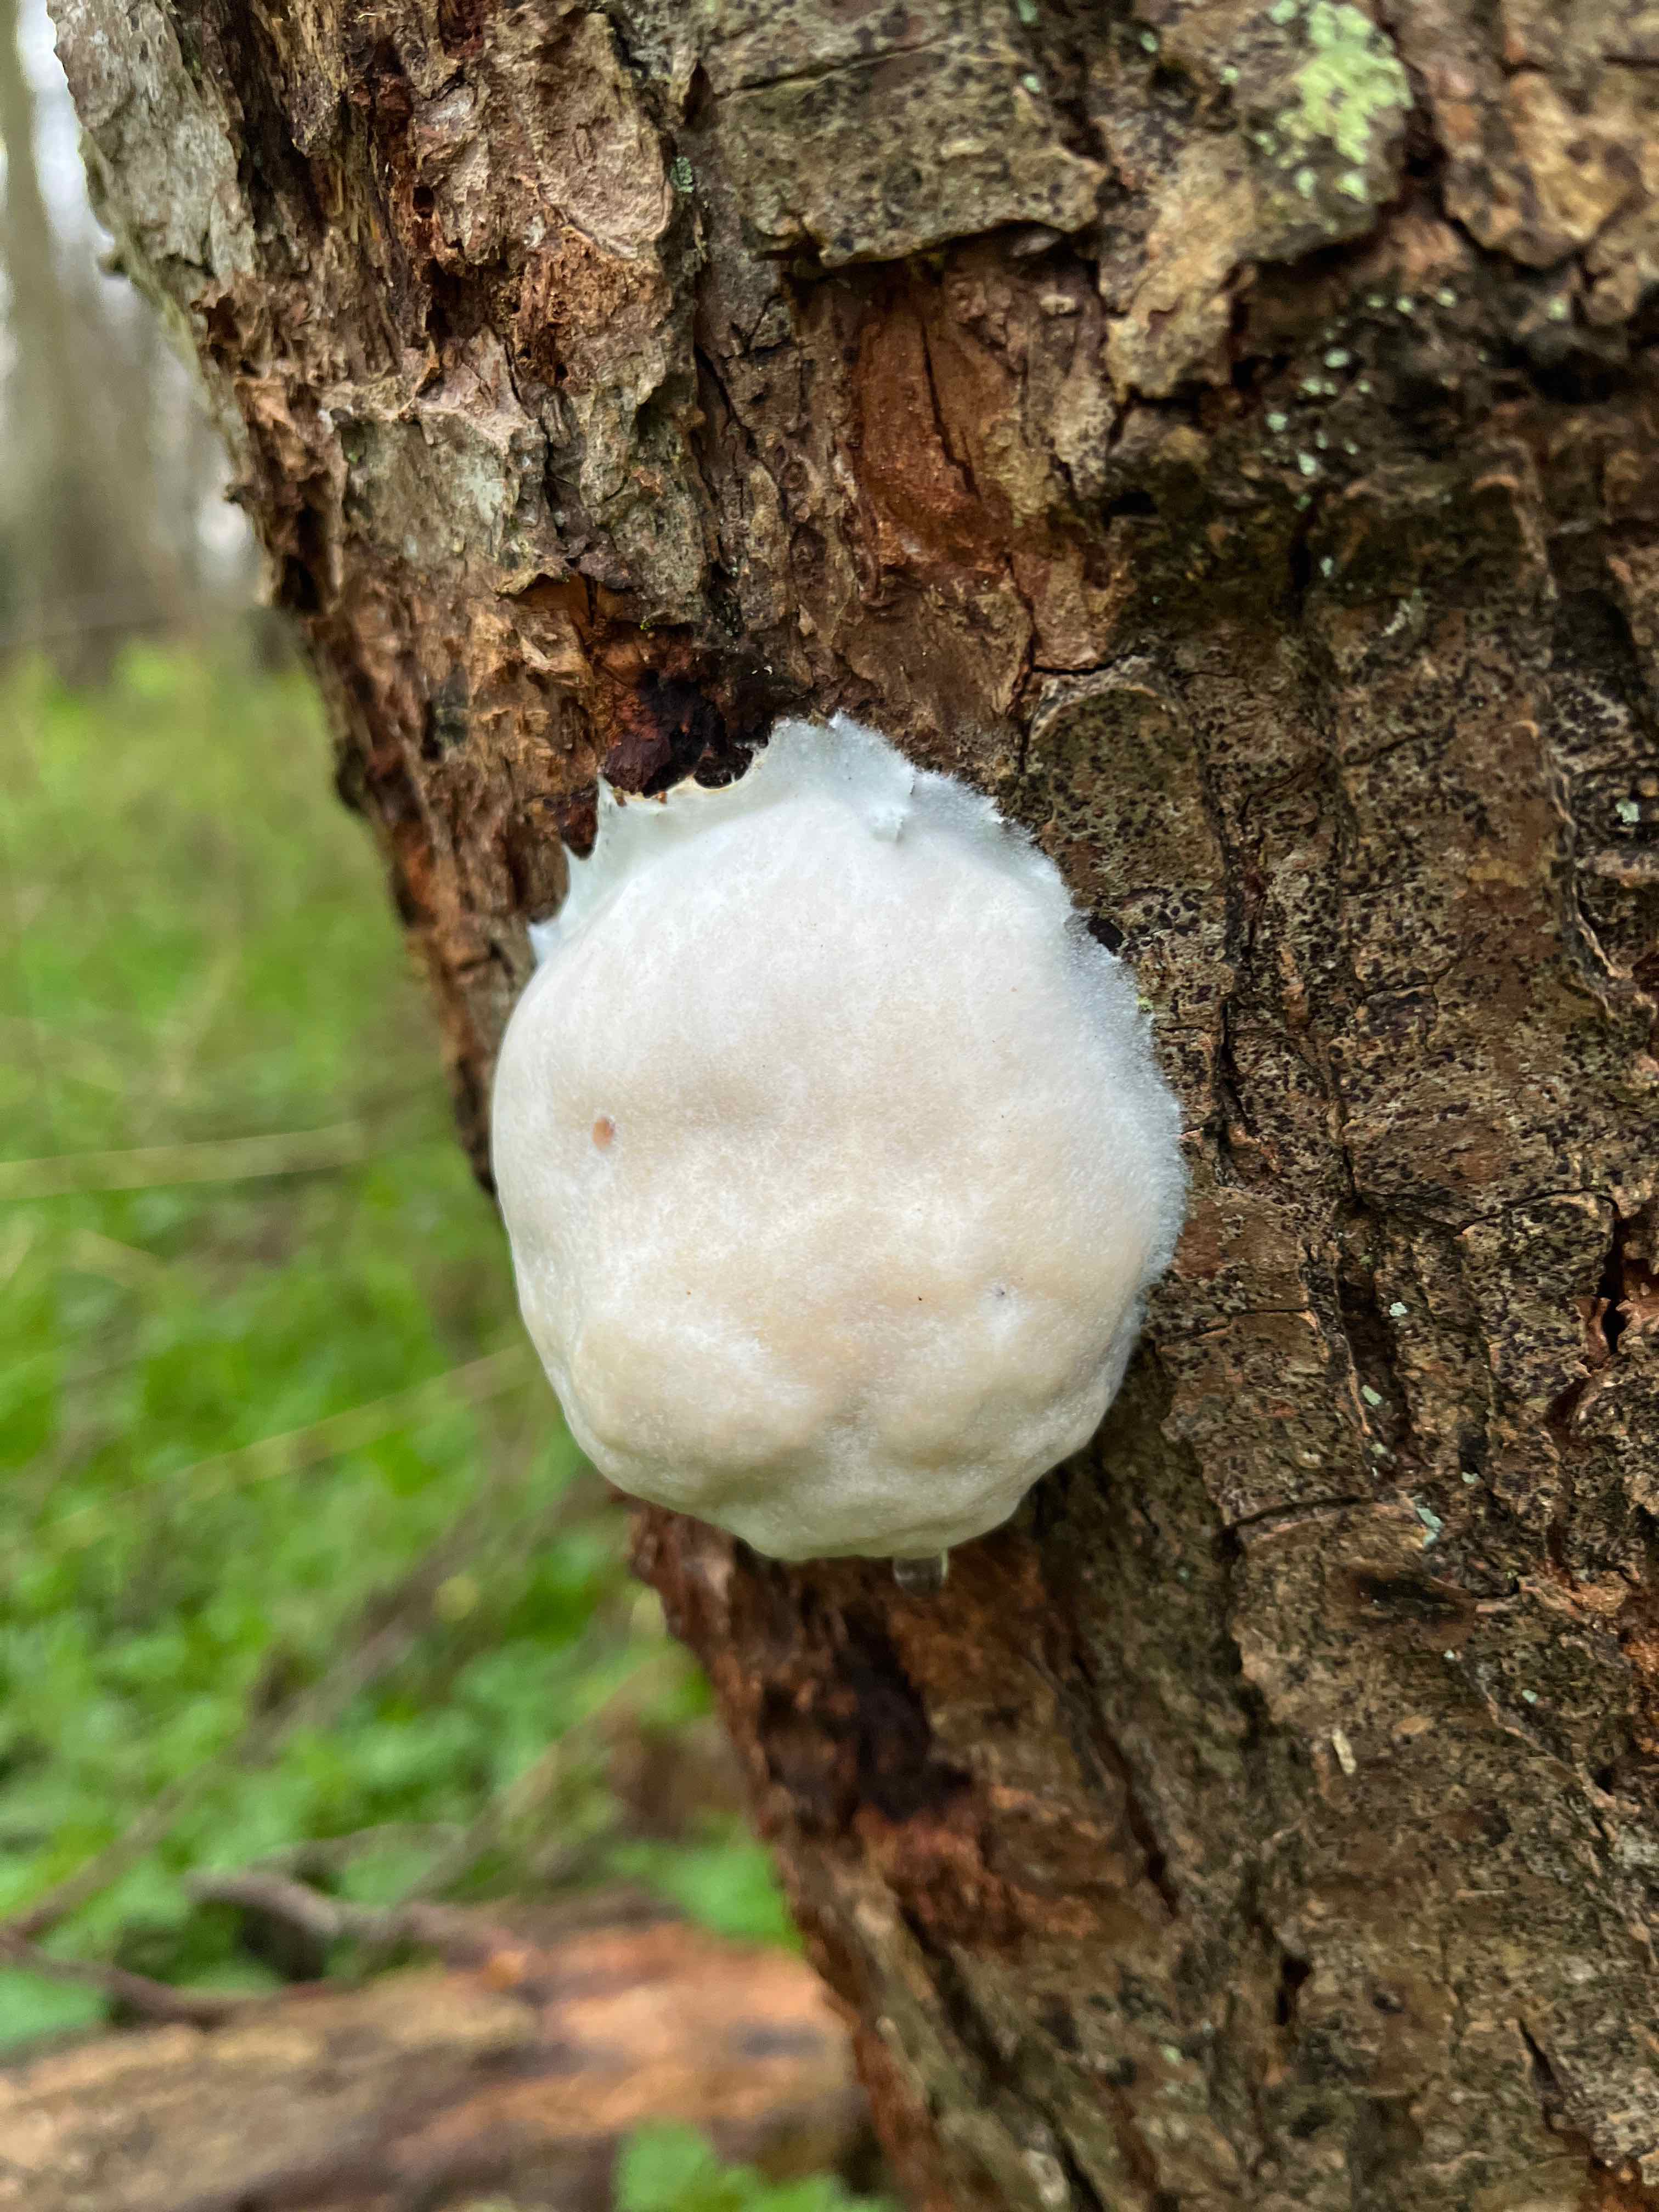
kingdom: Protozoa
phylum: Mycetozoa
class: Myxomycetes
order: Cribrariales
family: Tubiferaceae
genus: Reticularia
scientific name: Reticularia lycoperdon
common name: skinnende støvpude
